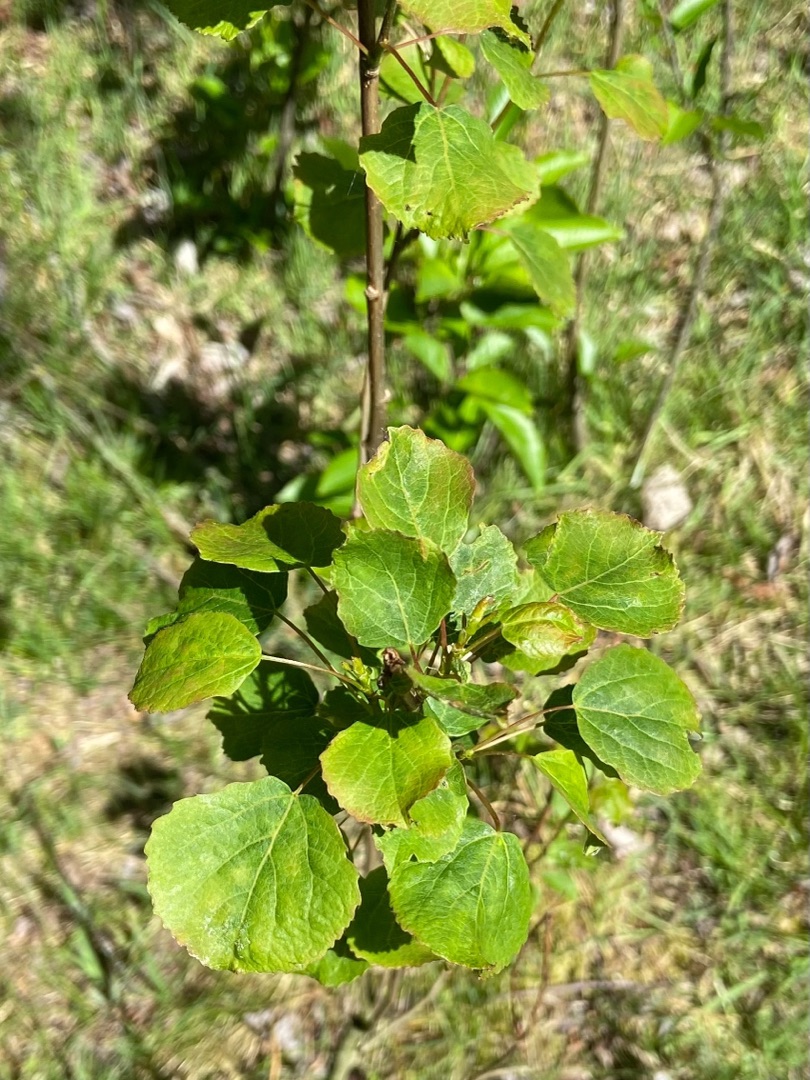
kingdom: Plantae
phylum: Tracheophyta
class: Magnoliopsida
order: Malpighiales
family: Salicaceae
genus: Populus
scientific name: Populus tremula
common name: Bævreasp
